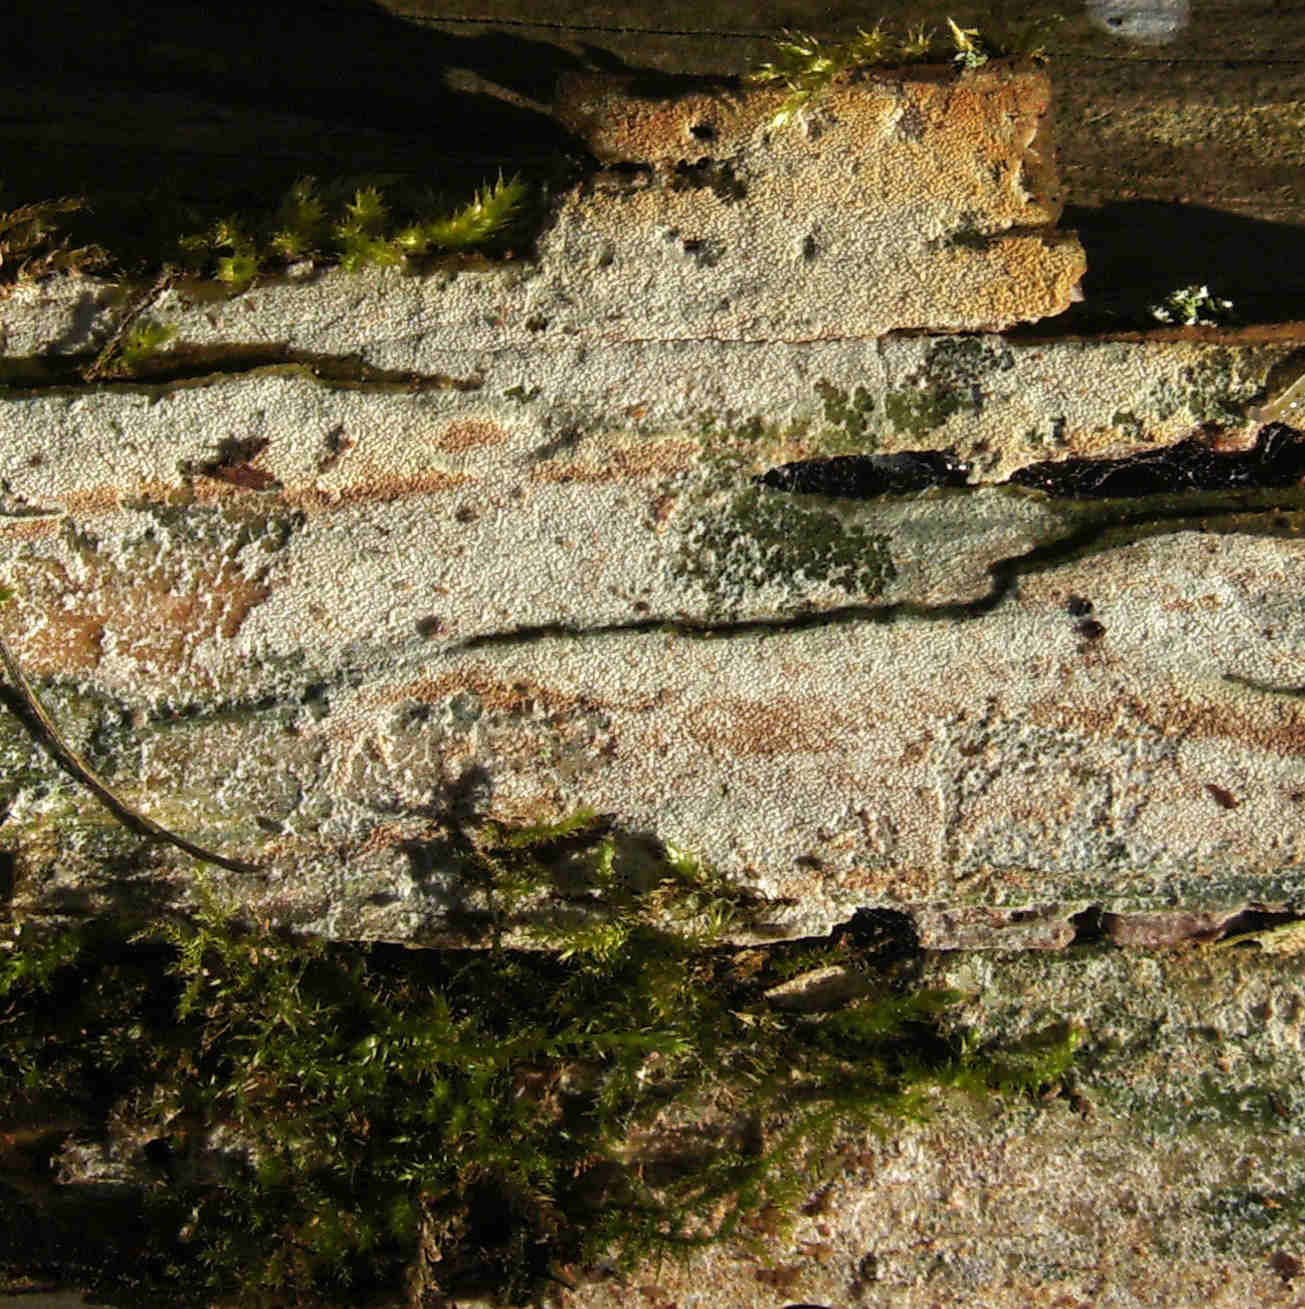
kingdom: Fungi
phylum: Basidiomycota
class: Agaricomycetes
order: Hymenochaetales
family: Rickenellaceae
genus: Resinicium
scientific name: Resinicium bicolor
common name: almindelig vokstand
